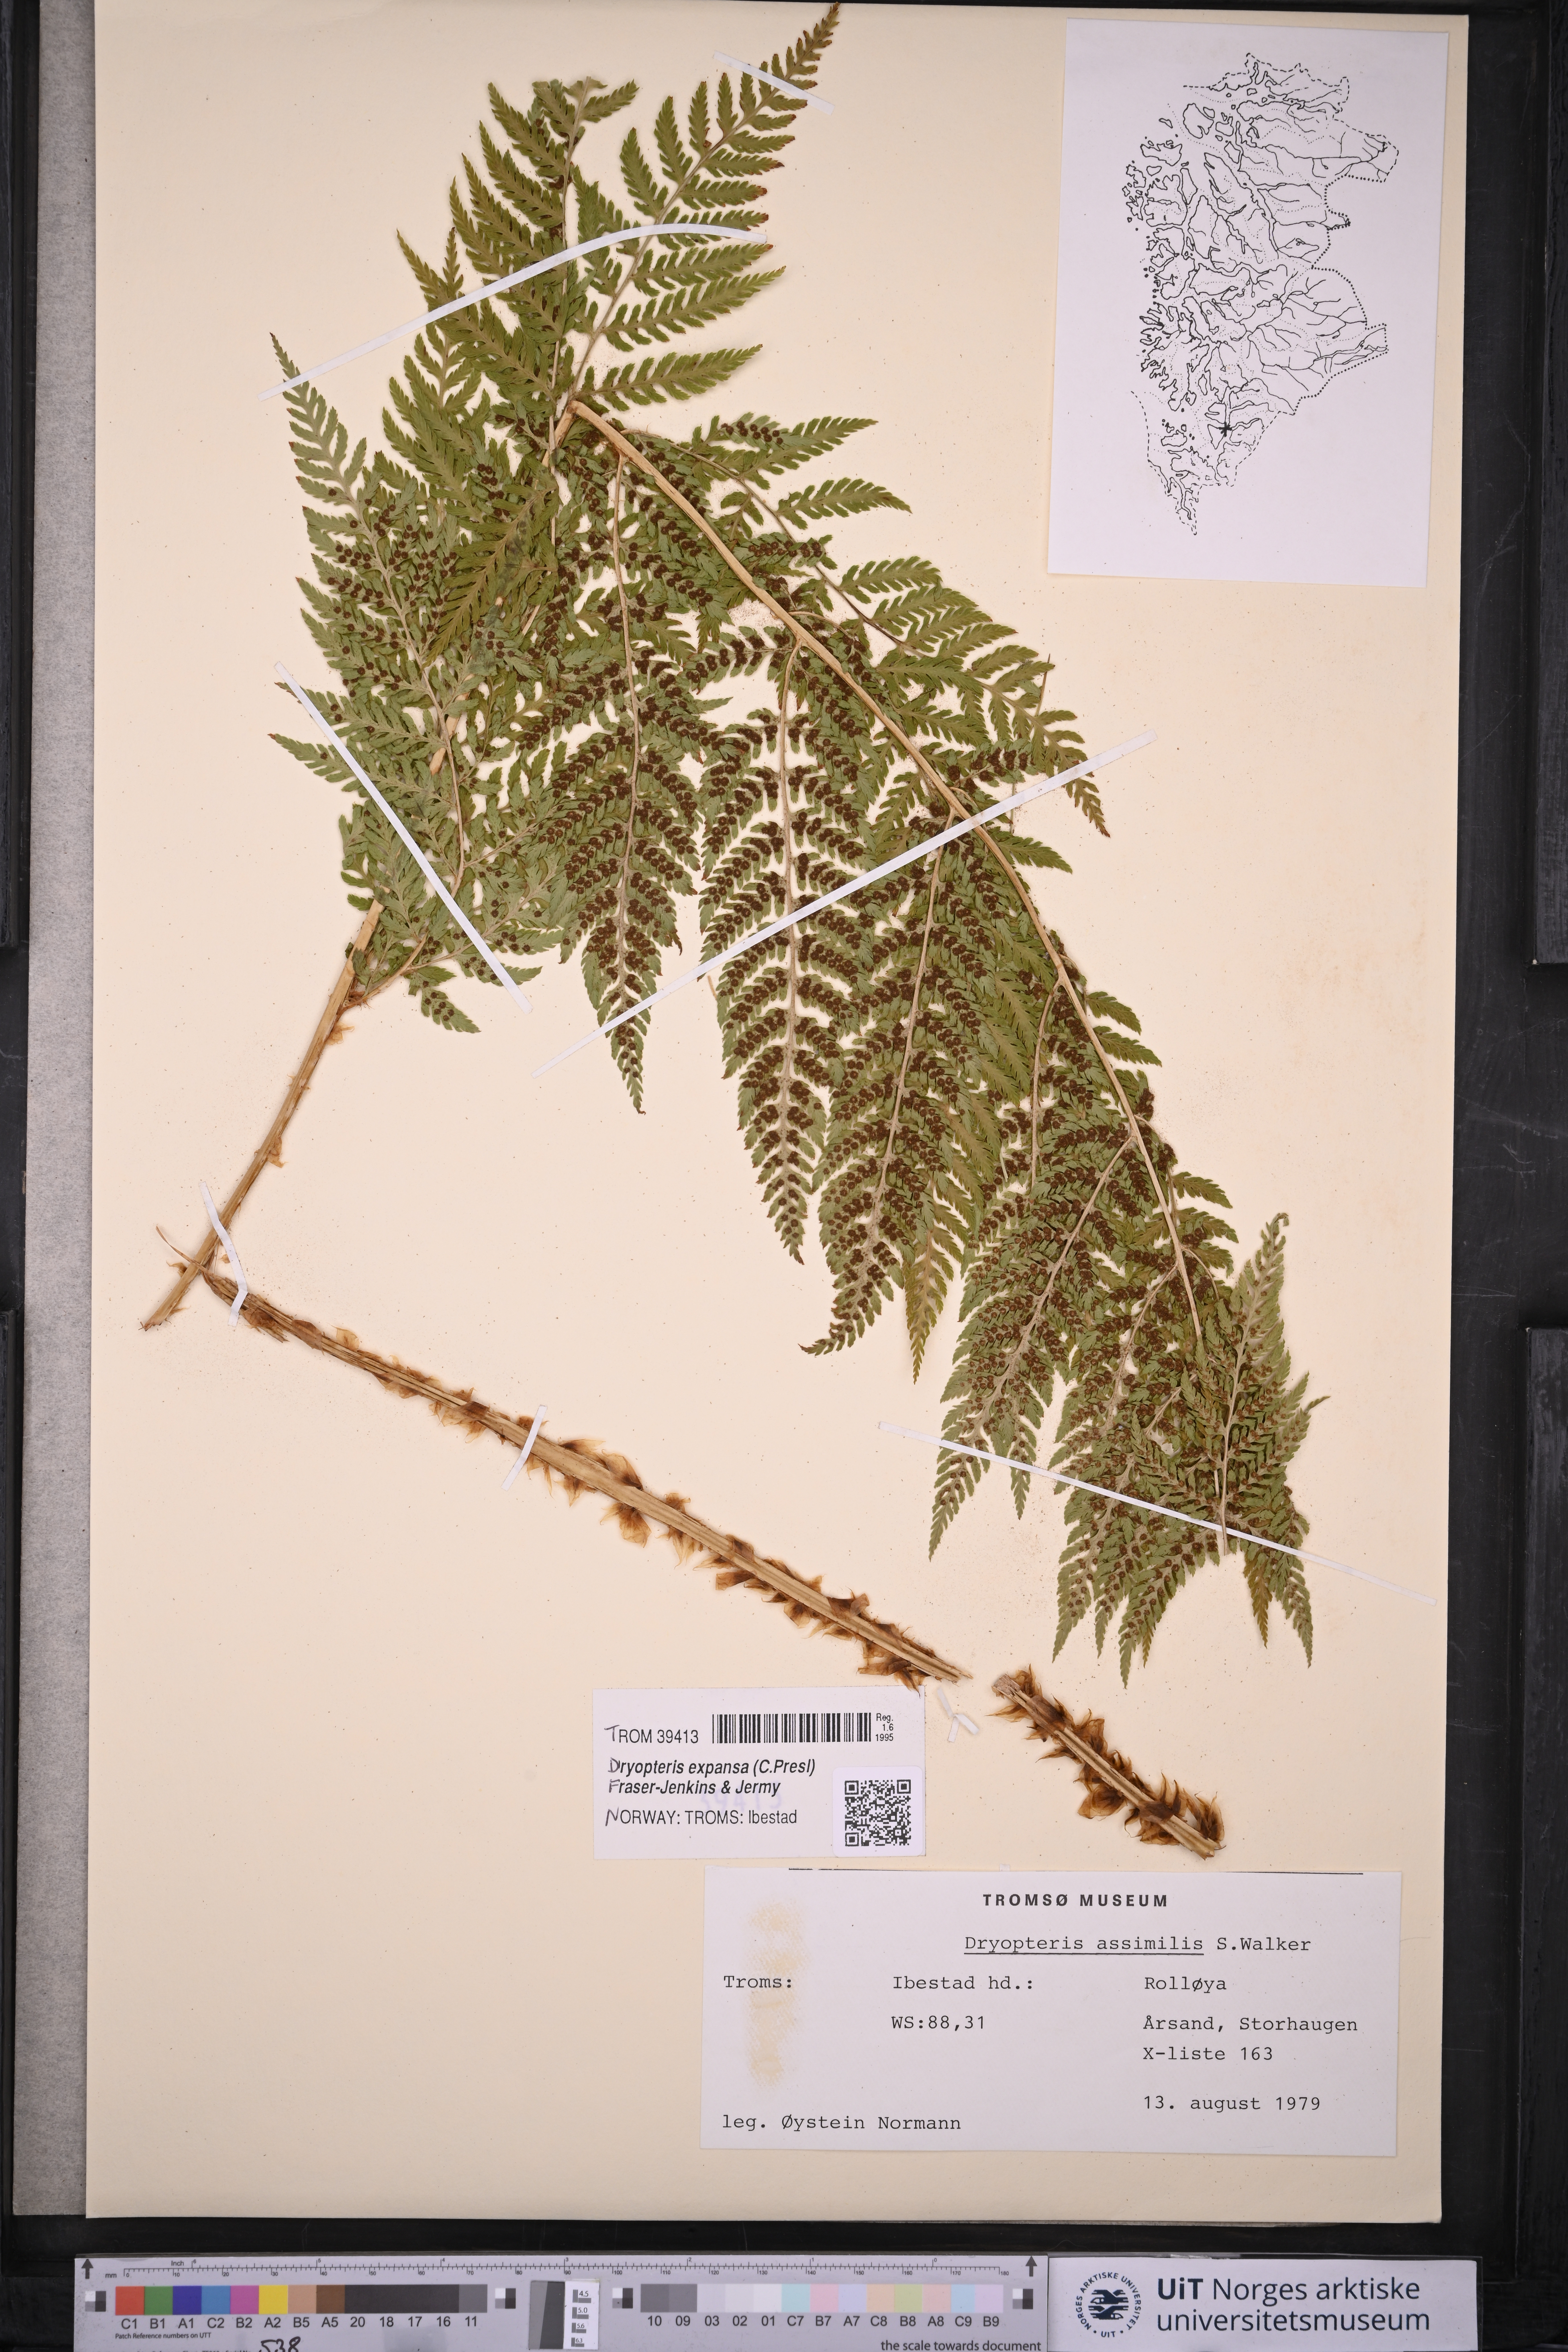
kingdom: Plantae
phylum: Tracheophyta
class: Polypodiopsida
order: Polypodiales
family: Dryopteridaceae
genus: Dryopteris
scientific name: Dryopteris expansa
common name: Northern buckler fern
